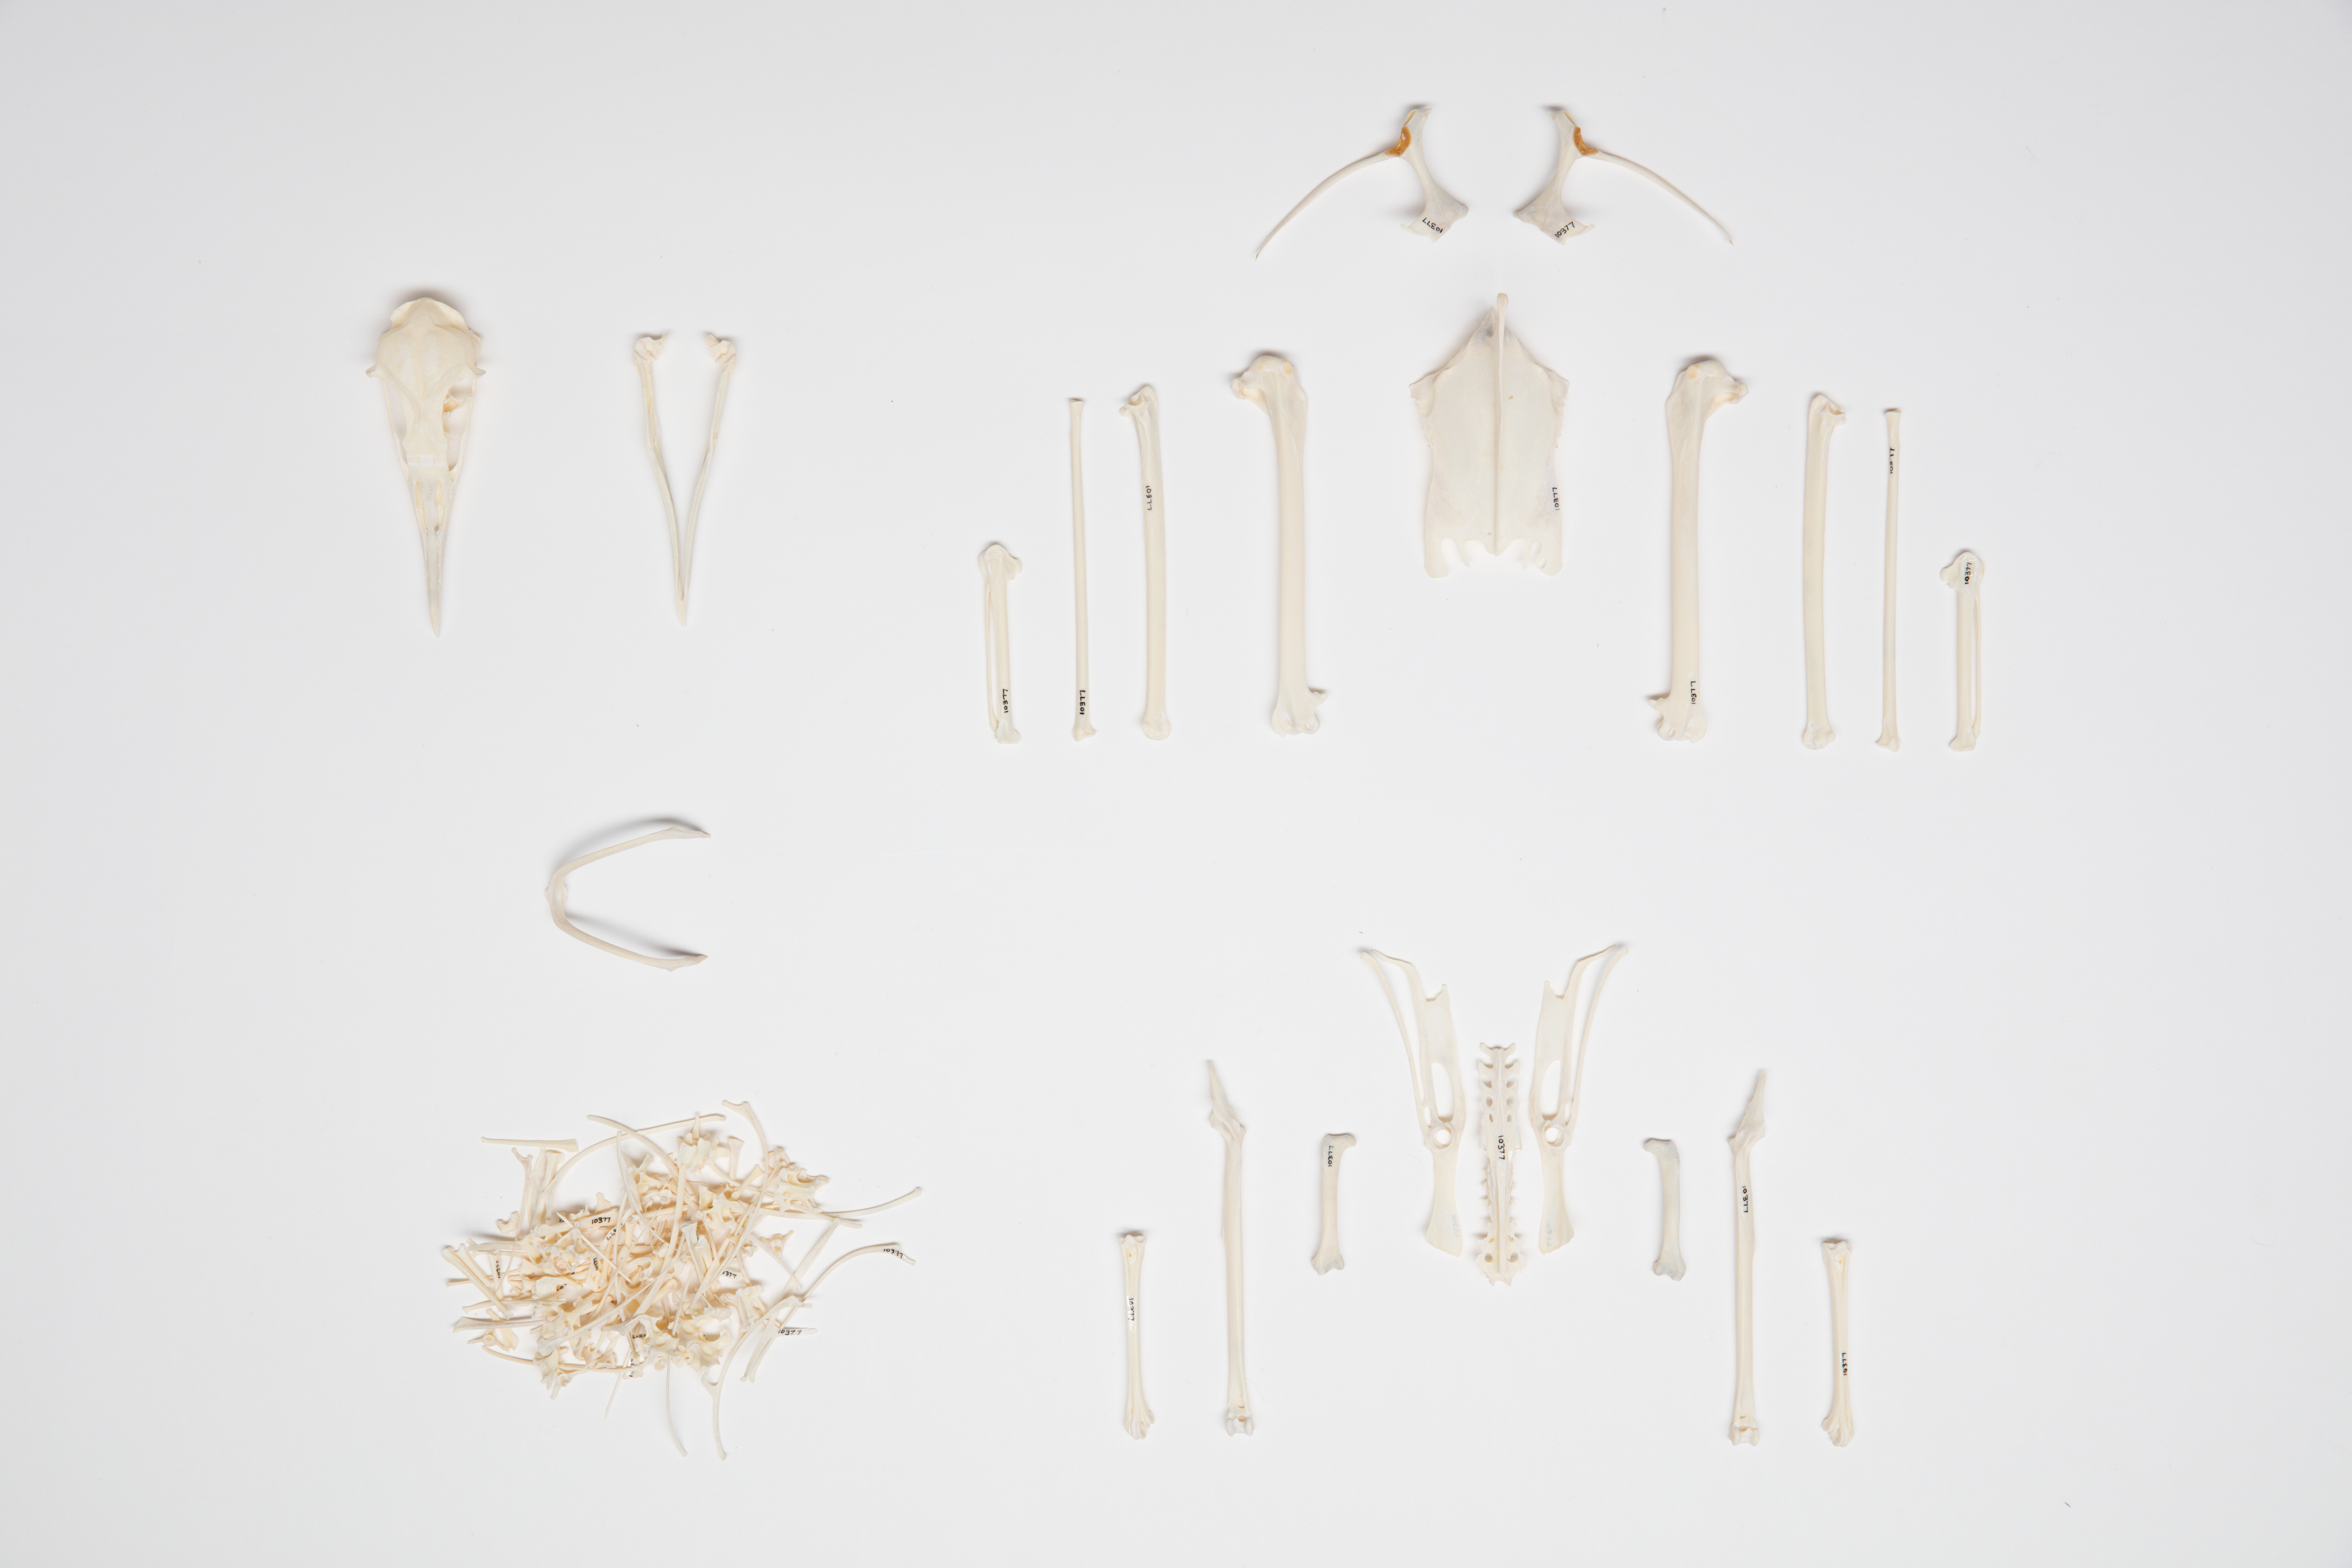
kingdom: Animalia
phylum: Chordata
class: Aves
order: Procellariiformes
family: Procellariidae
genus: Puffinus
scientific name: Puffinus griseus
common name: Sooty shearwater
